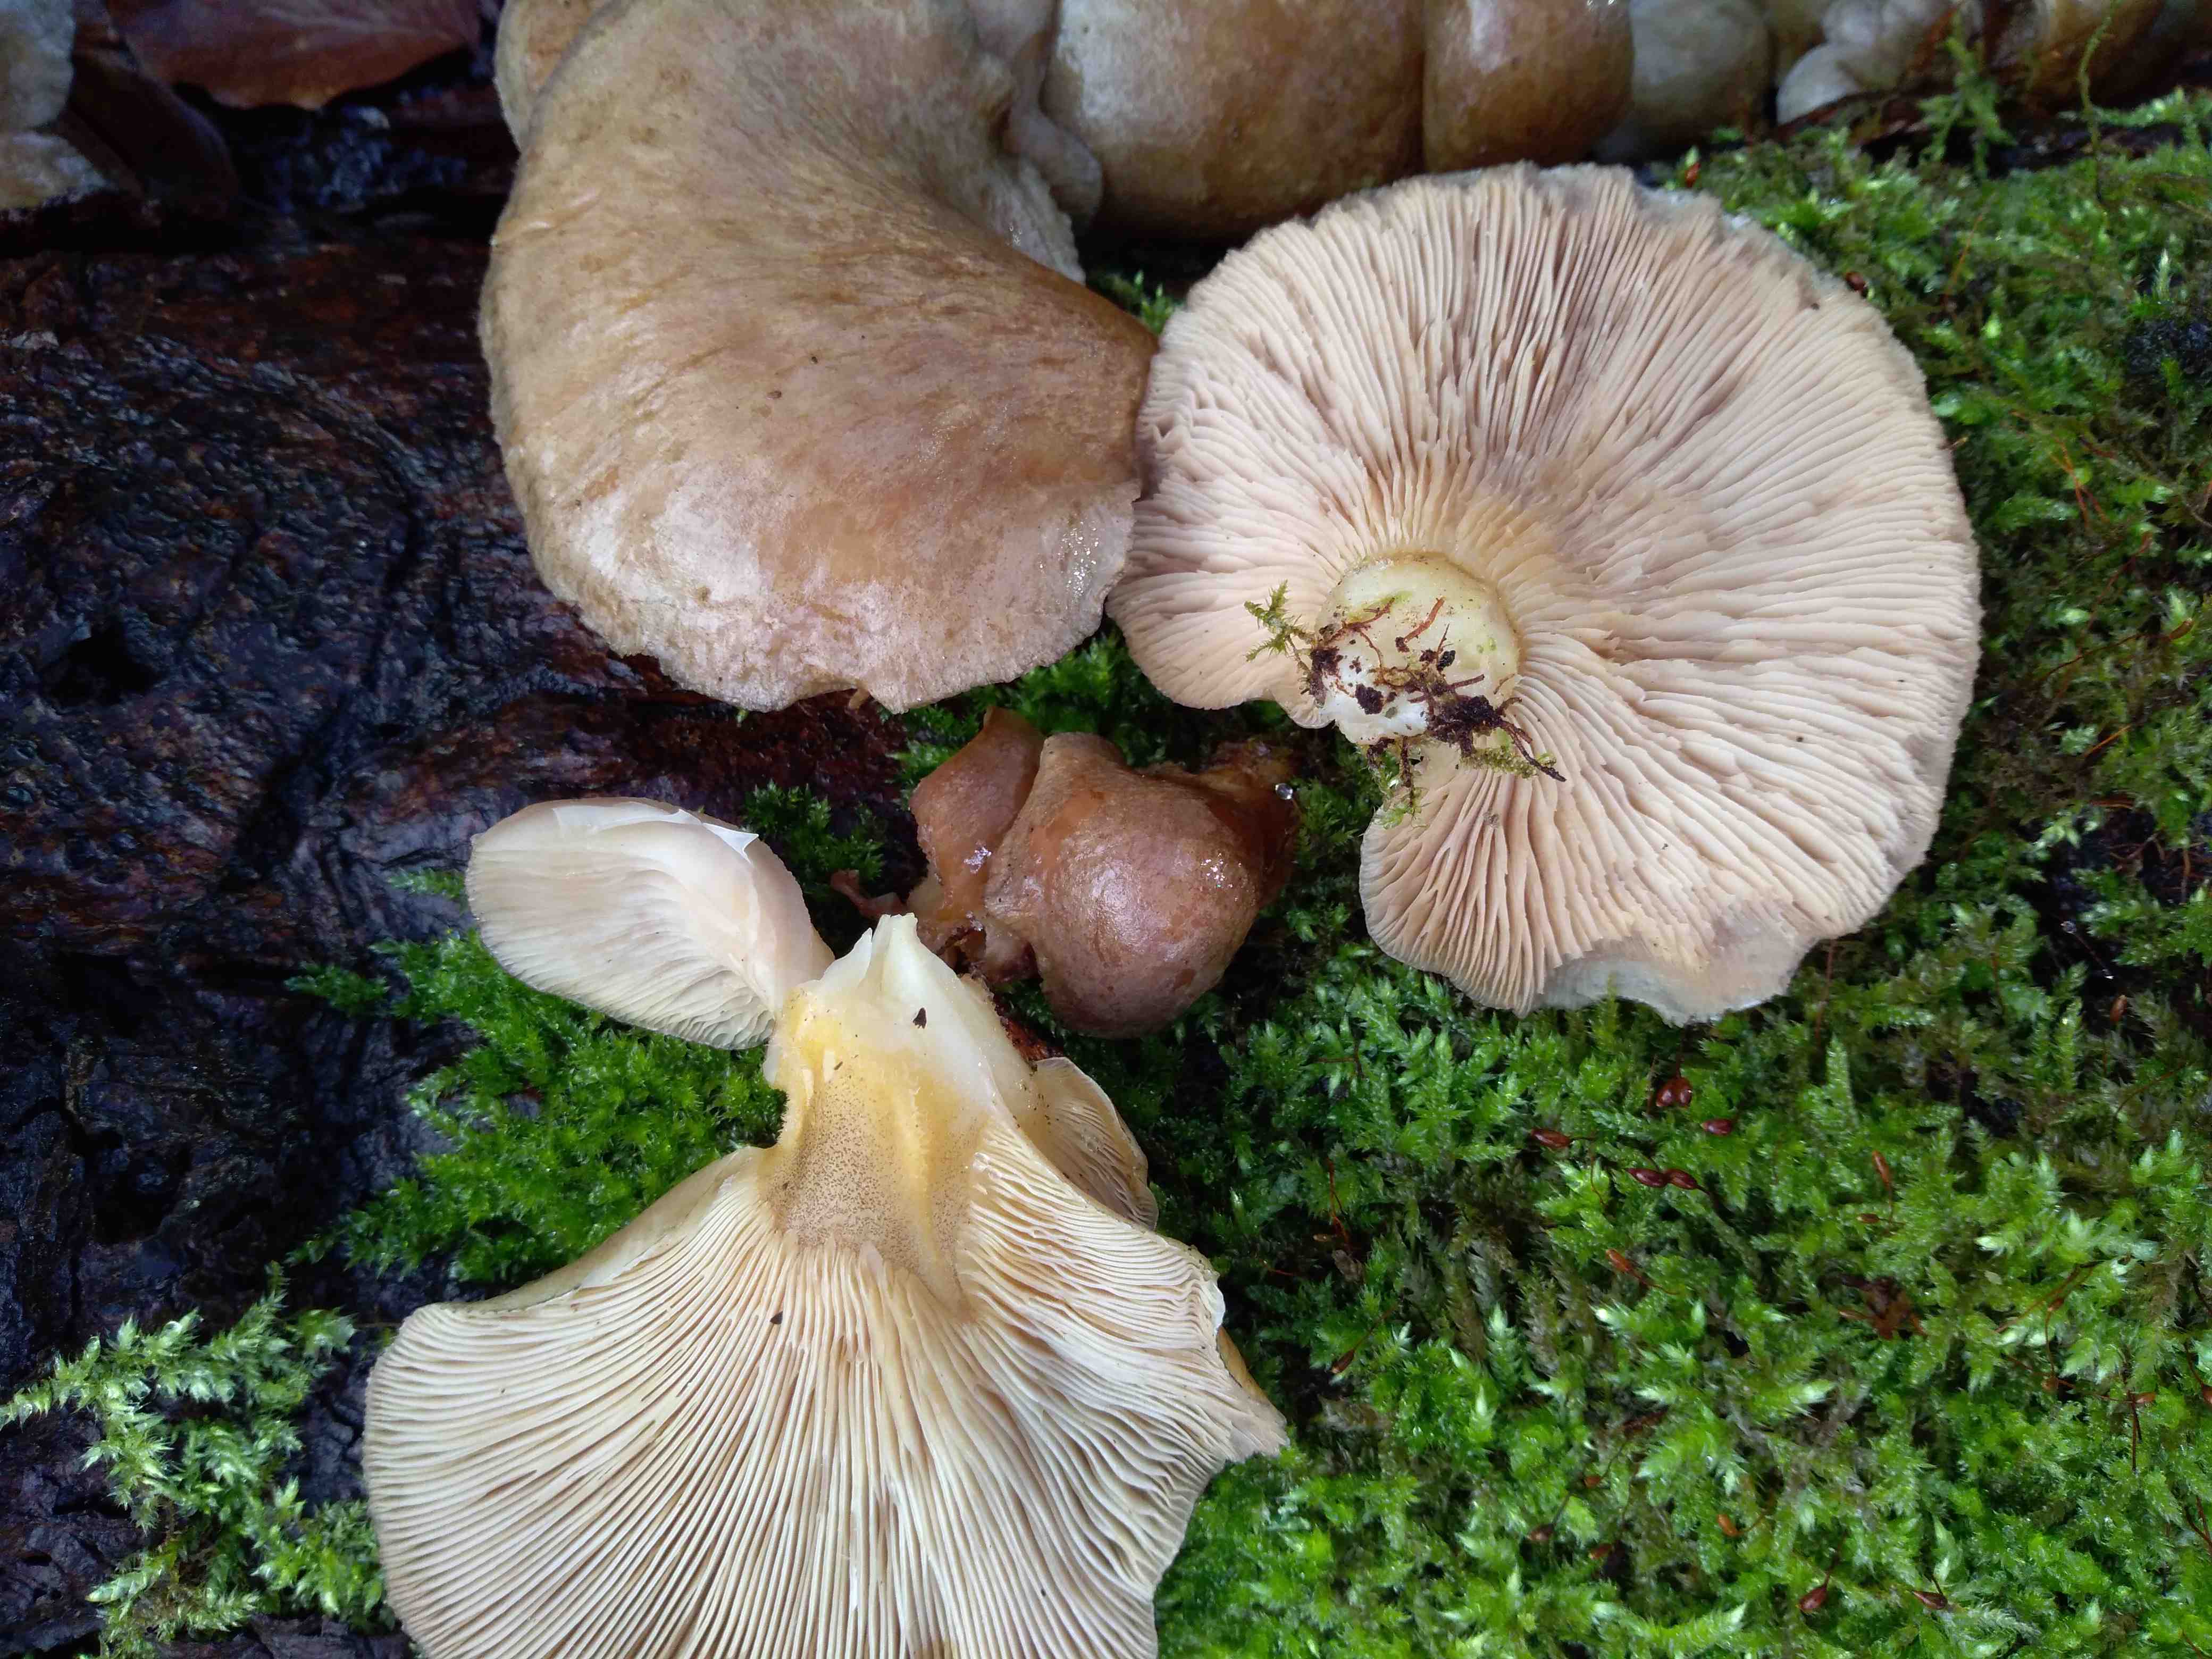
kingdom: Fungi
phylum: Basidiomycota
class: Agaricomycetes
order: Agaricales
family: Sarcomyxaceae
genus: Sarcomyxa
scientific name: Sarcomyxa serotina
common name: gummihat
